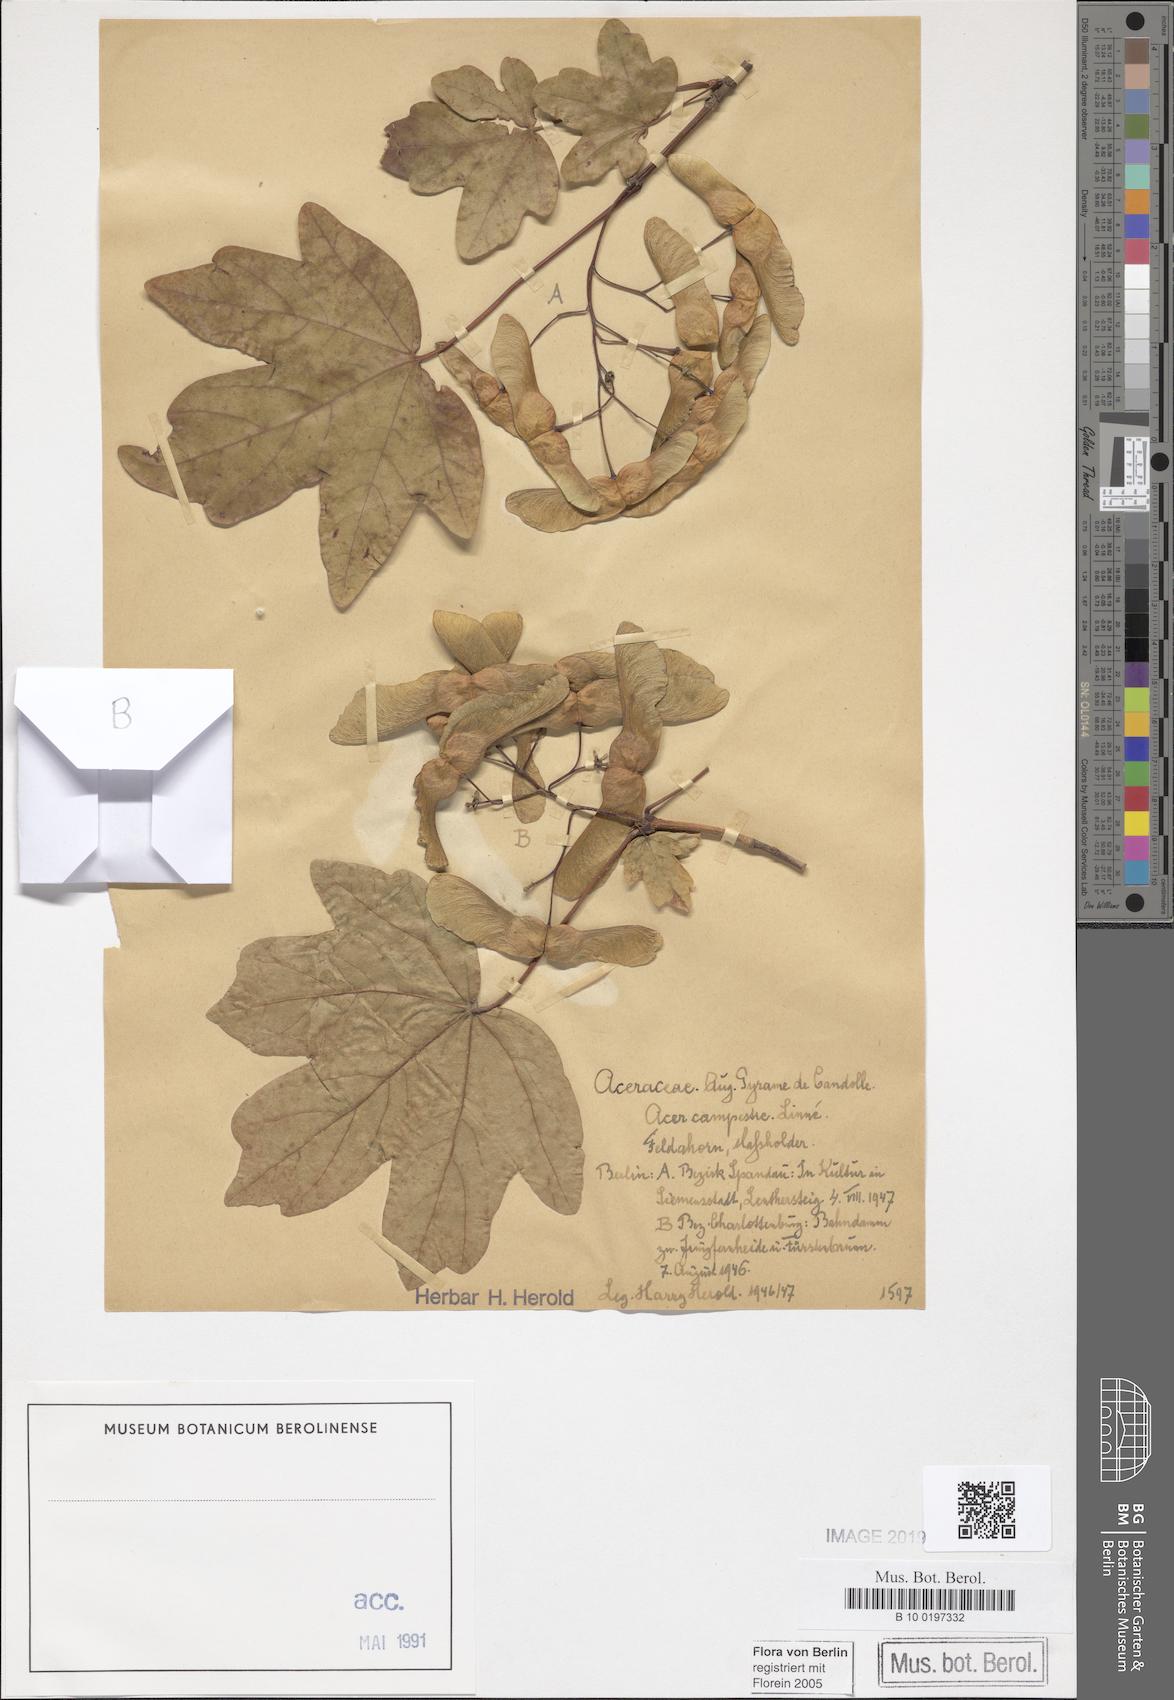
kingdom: Plantae
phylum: Tracheophyta
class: Magnoliopsida
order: Sapindales
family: Sapindaceae
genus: Acer
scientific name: Acer campestre
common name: Field maple
